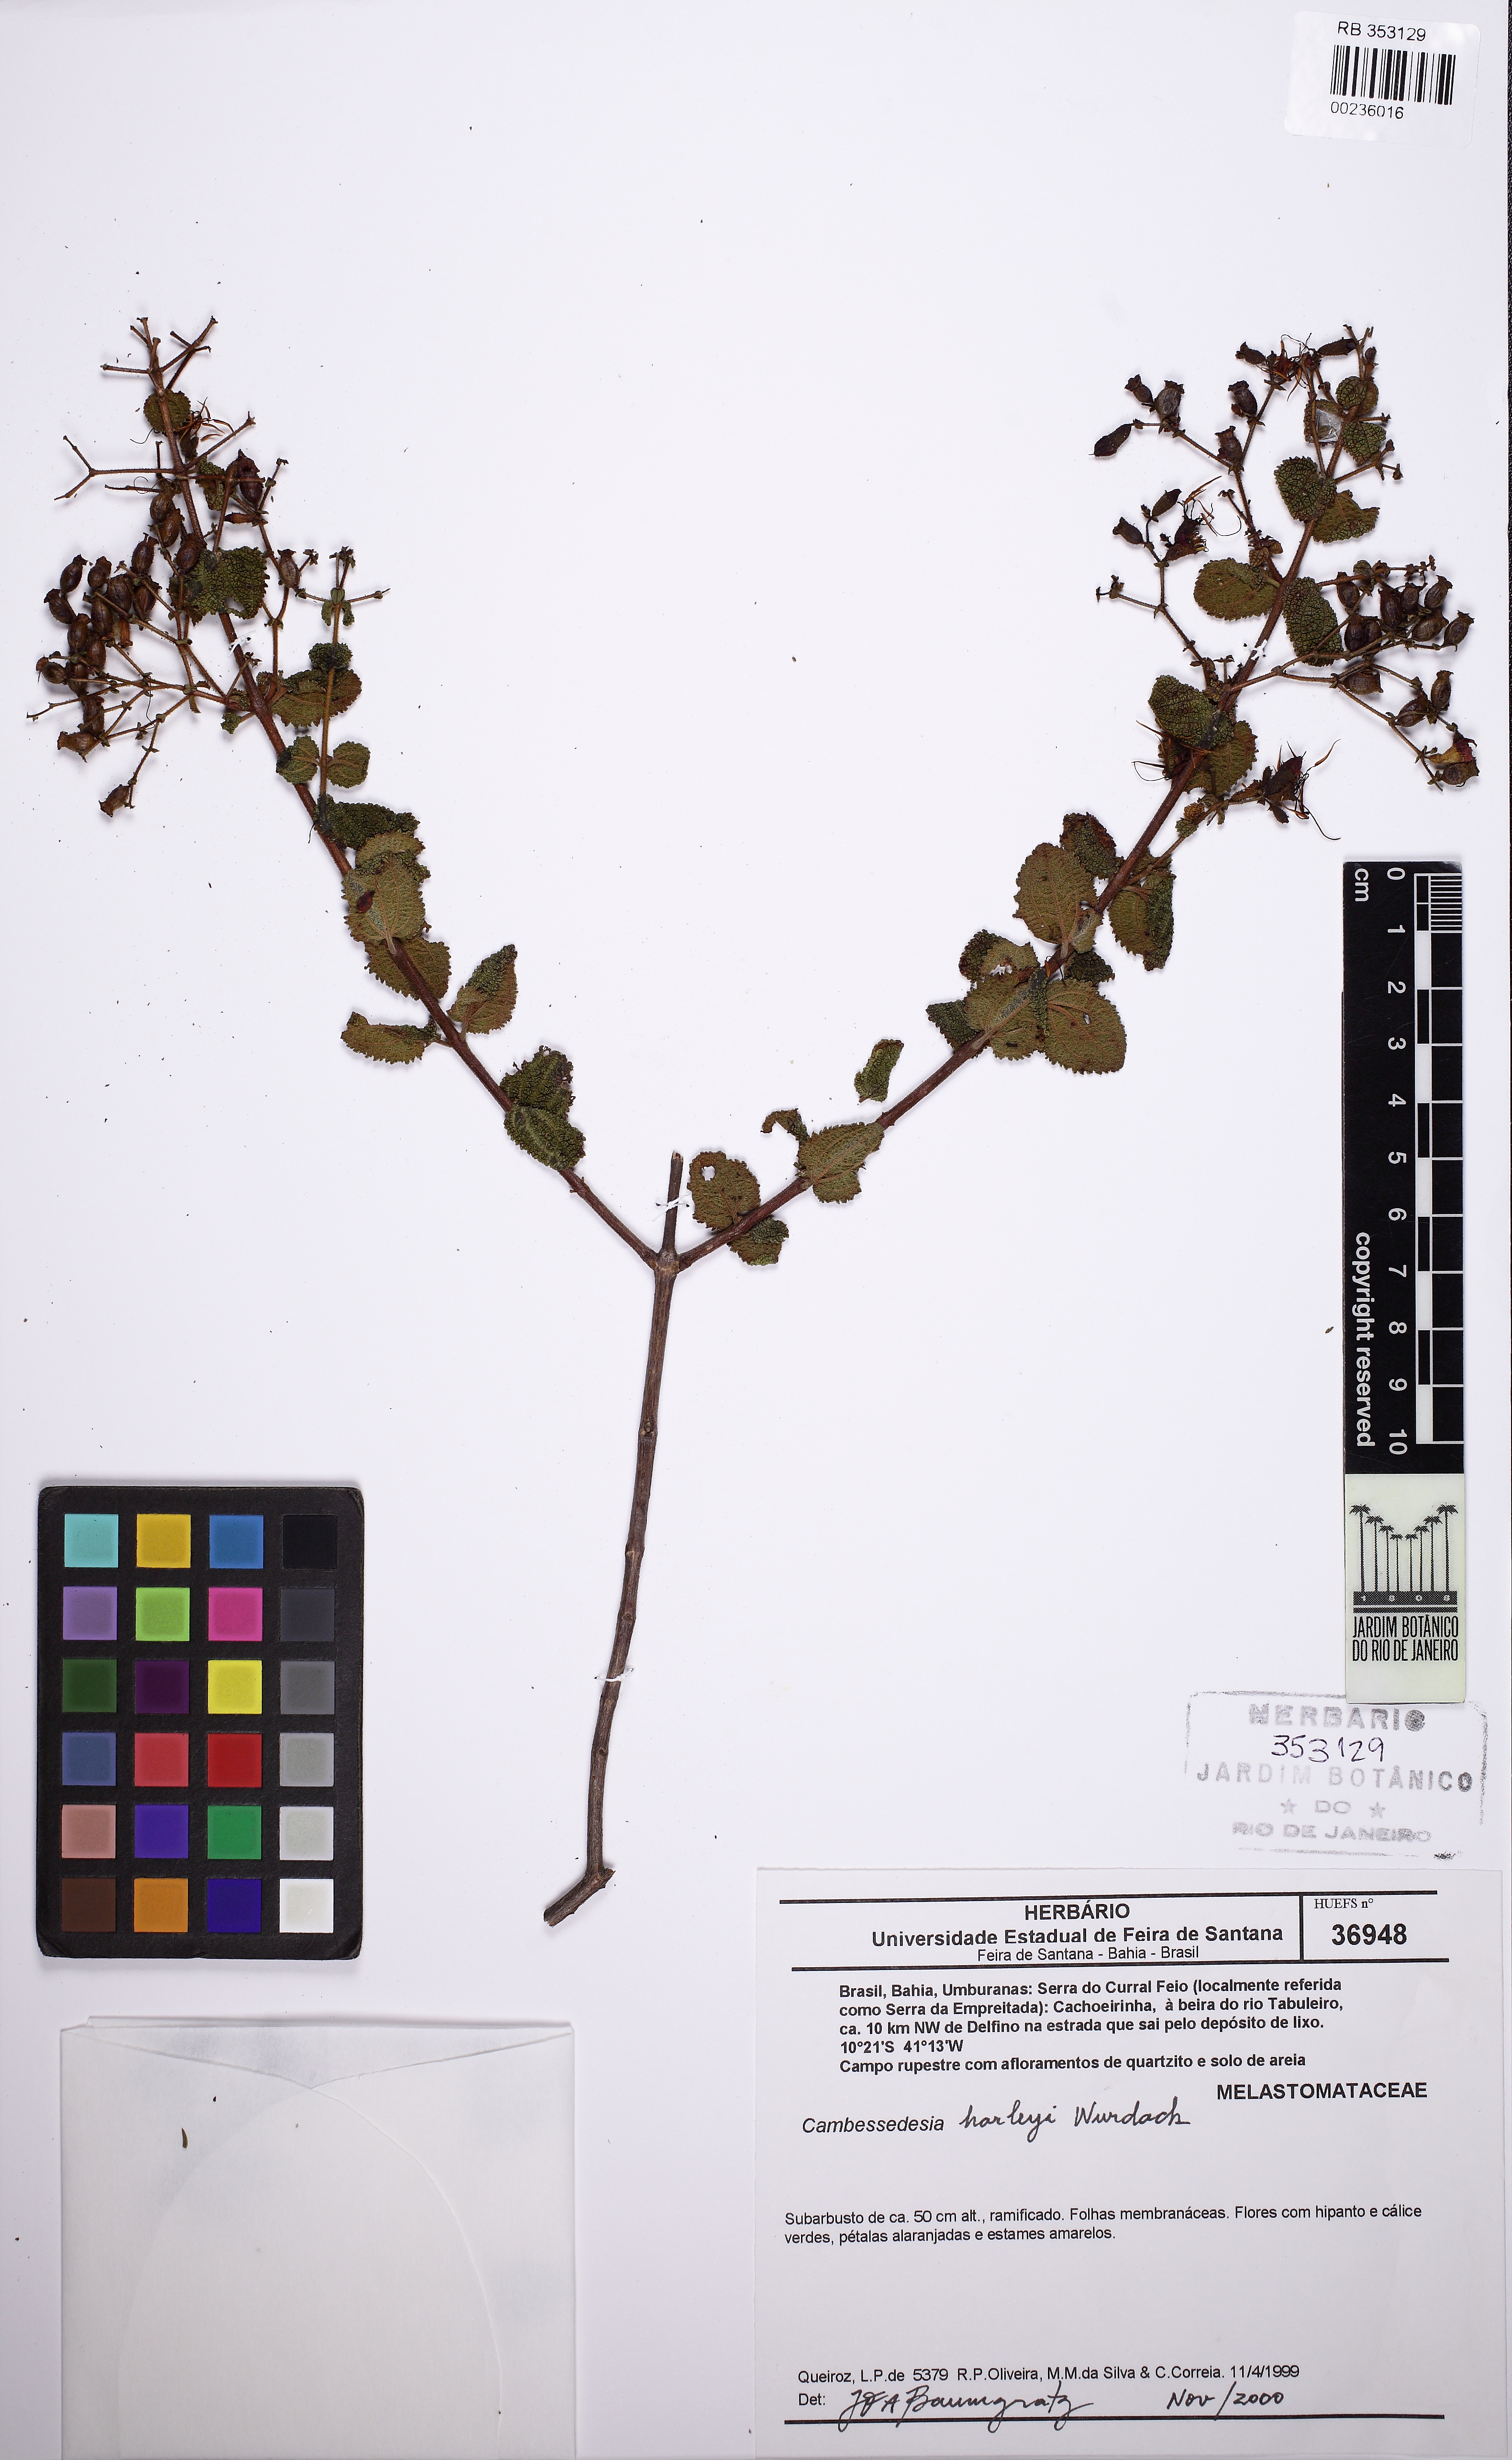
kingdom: Plantae
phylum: Tracheophyta
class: Magnoliopsida
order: Myrtales
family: Melastomataceae
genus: Cambessedesia
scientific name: Cambessedesia harleyi
